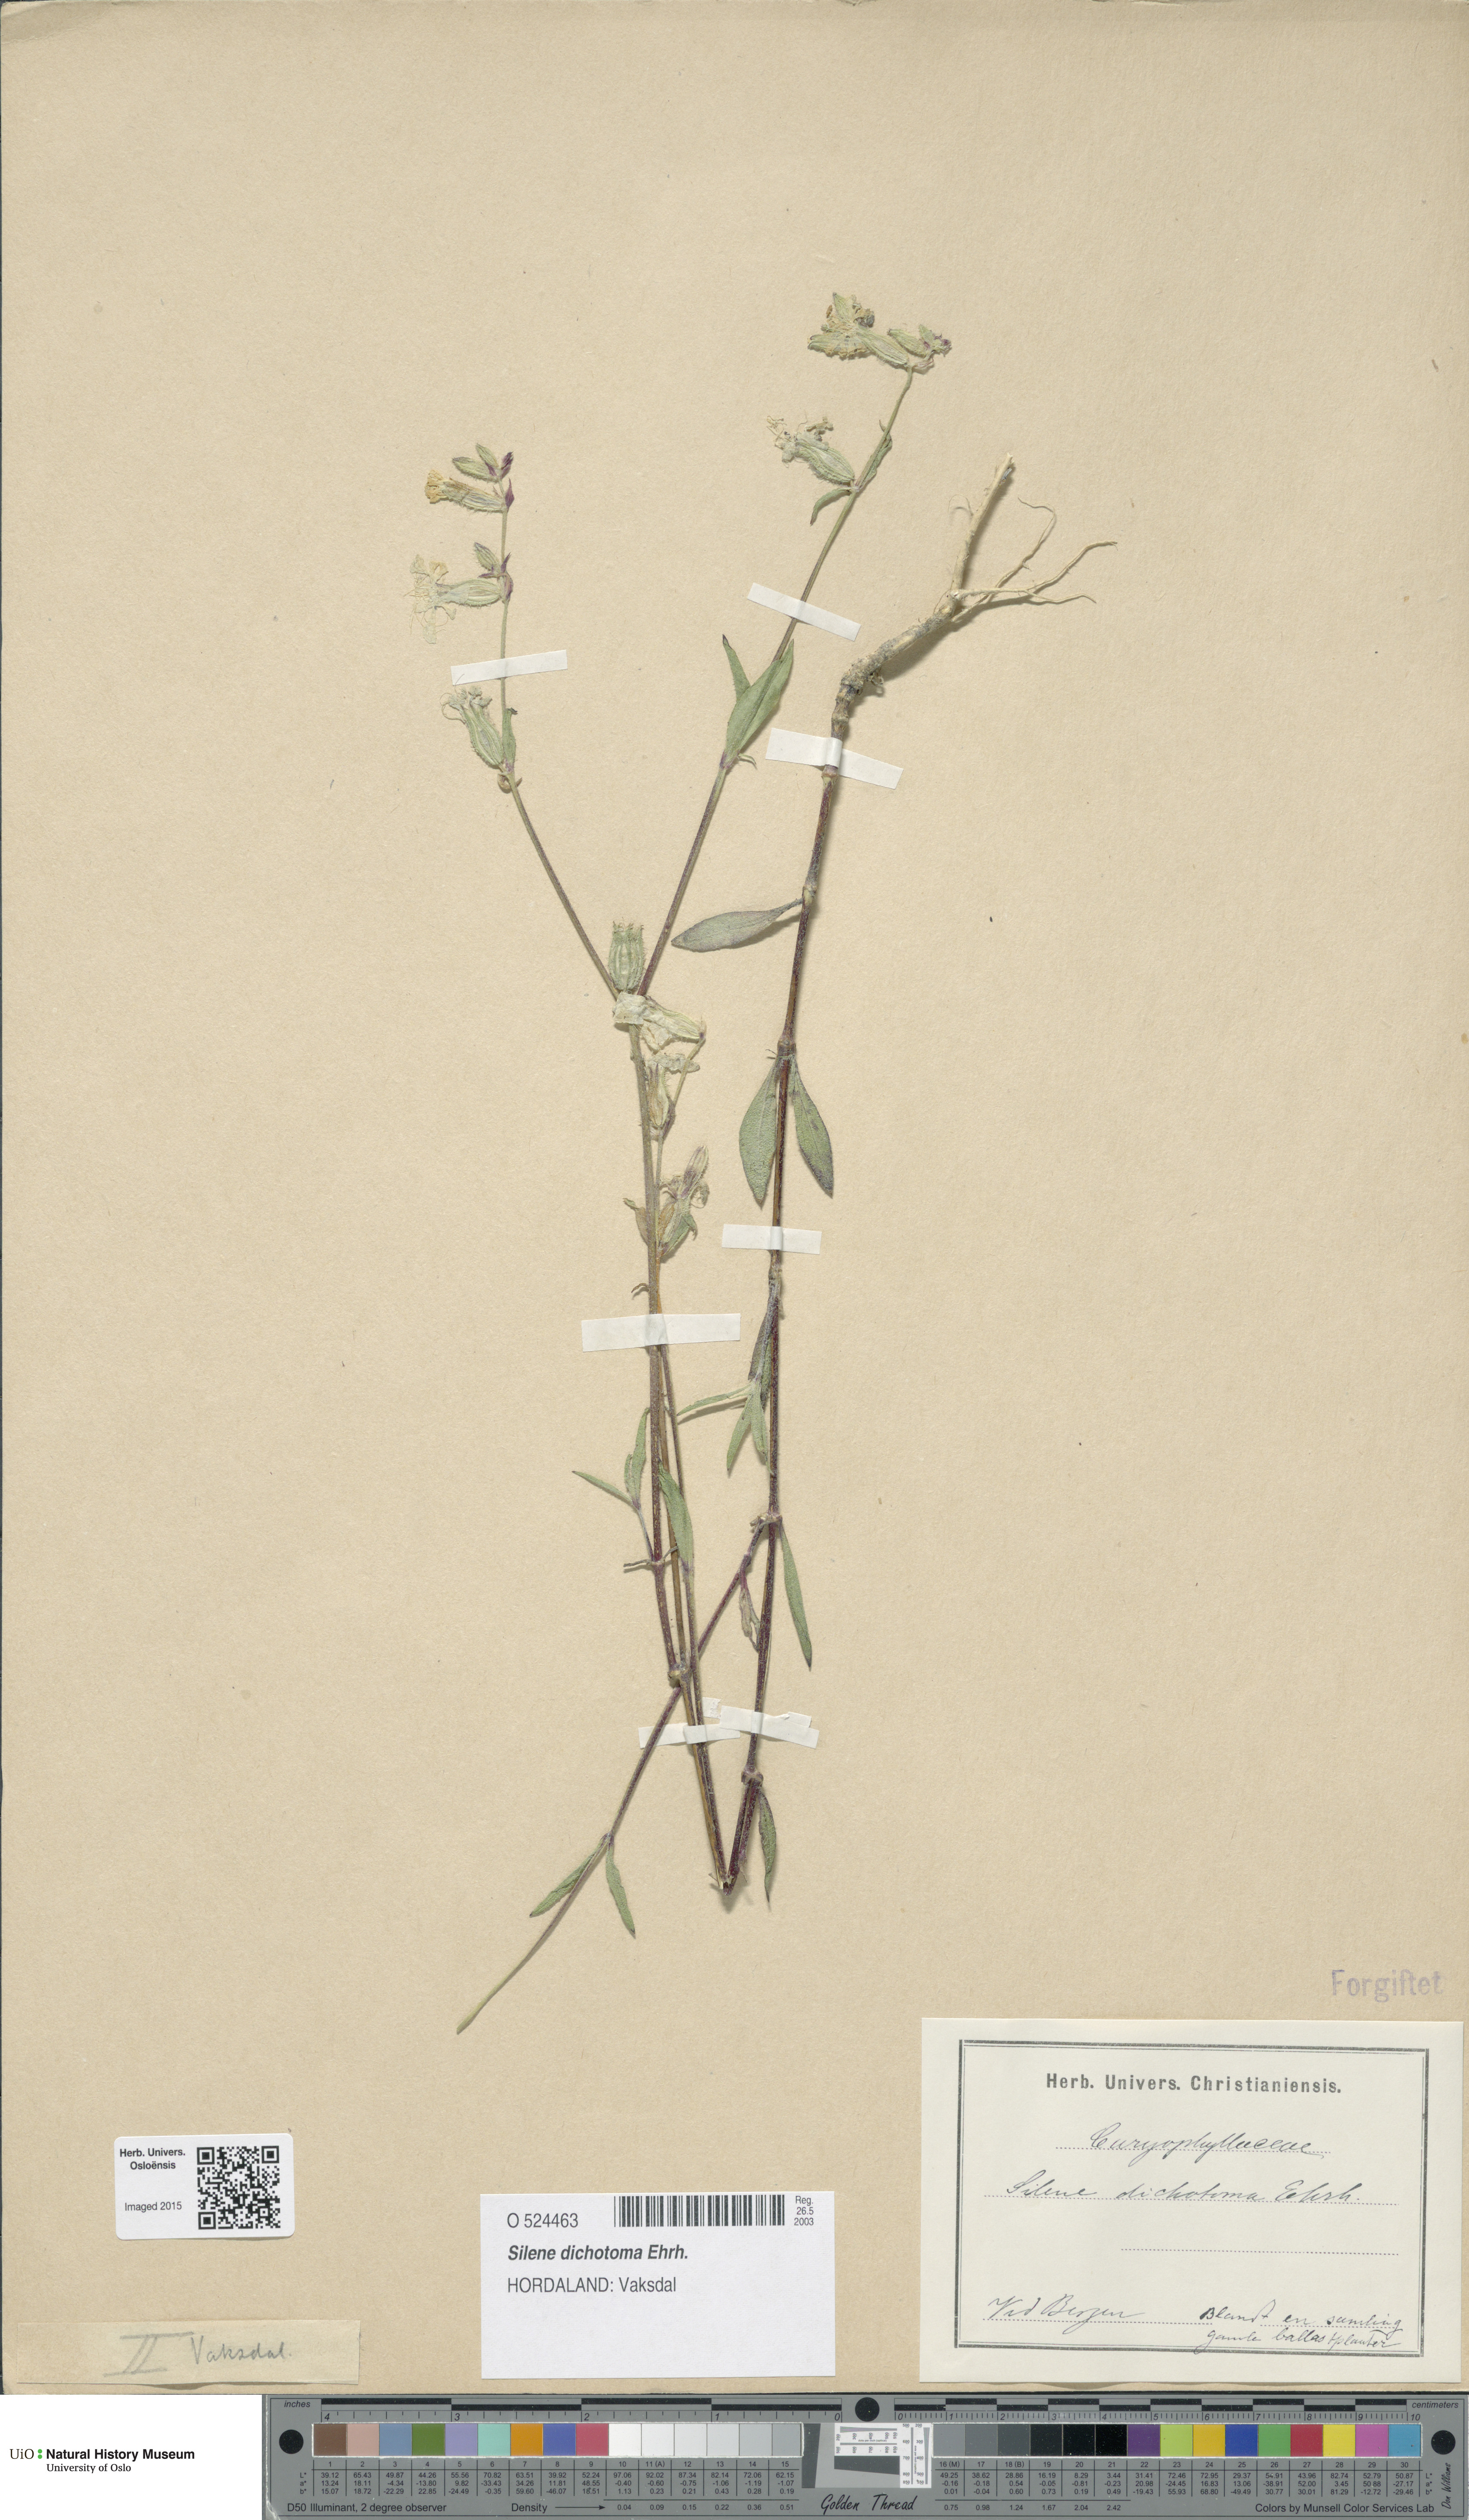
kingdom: Plantae
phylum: Tracheophyta
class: Magnoliopsida
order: Caryophyllales
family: Caryophyllaceae
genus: Silene
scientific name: Silene dichotoma
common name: Forked catchfly
